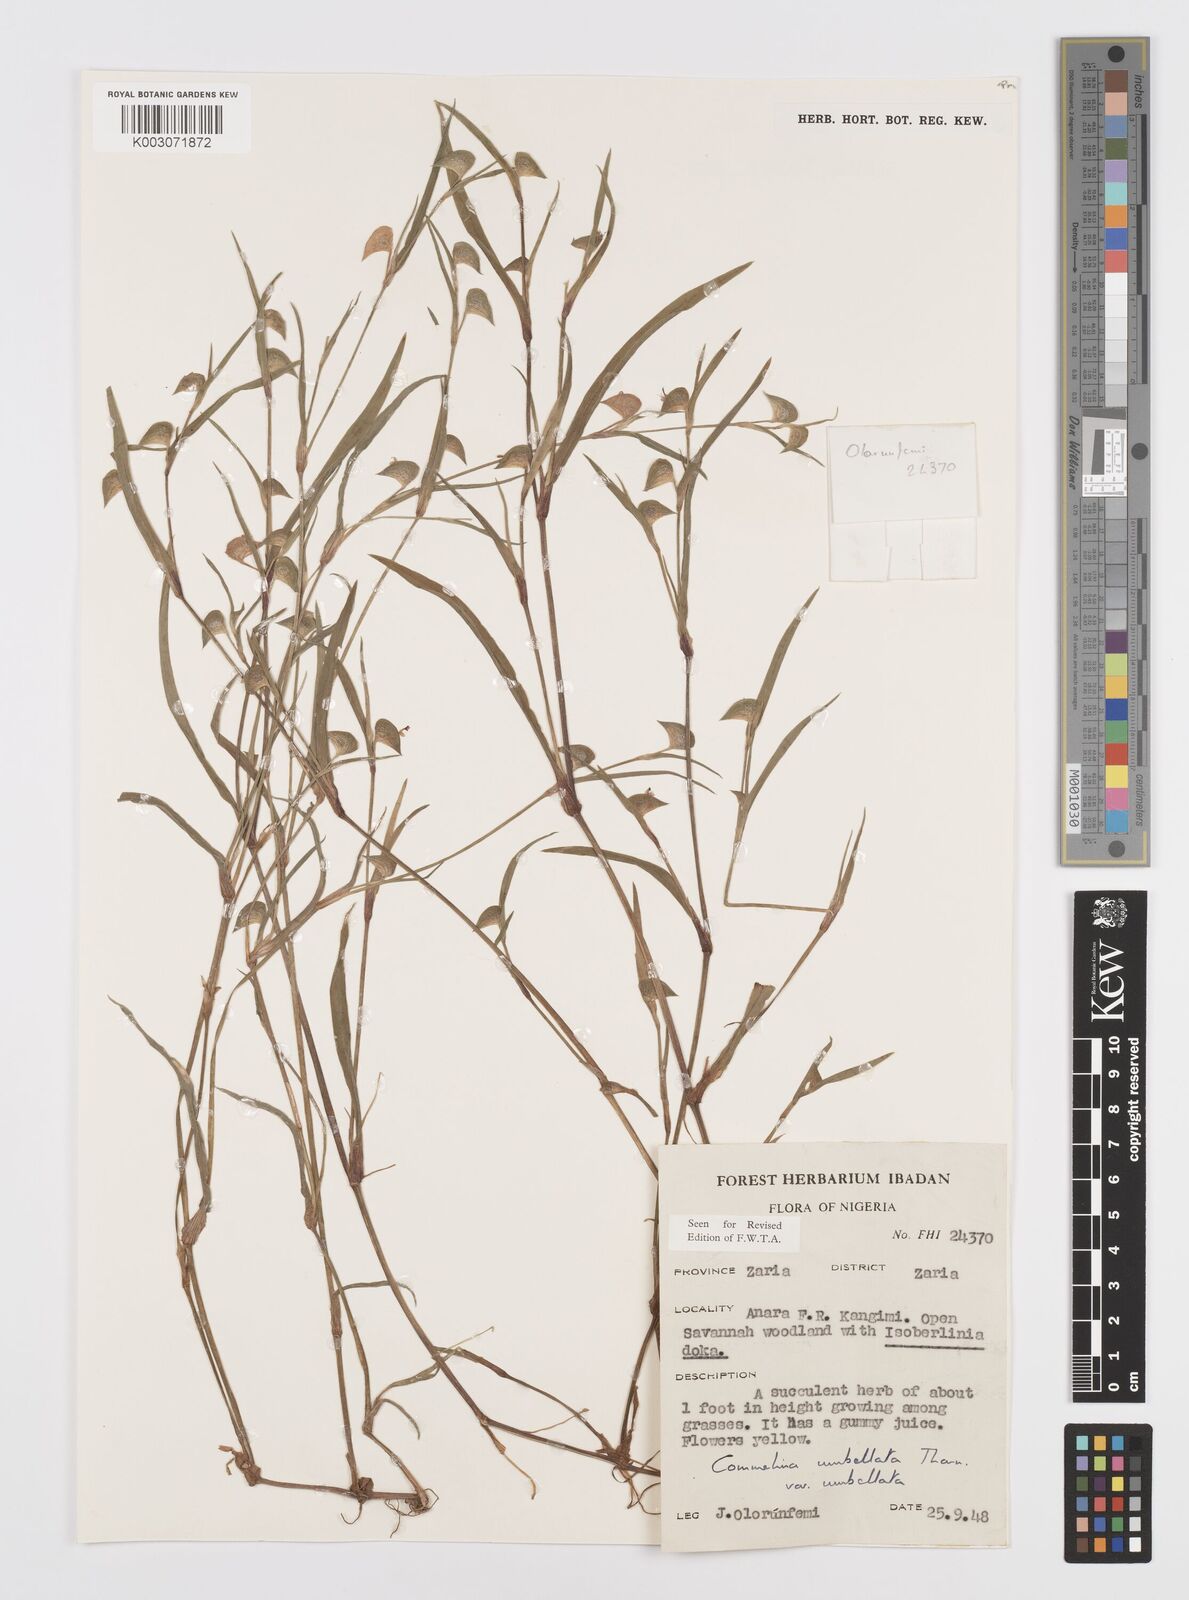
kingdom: Plantae
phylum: Tracheophyta
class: Liliopsida
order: Commelinales
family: Commelinaceae
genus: Commelina
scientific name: Commelina
